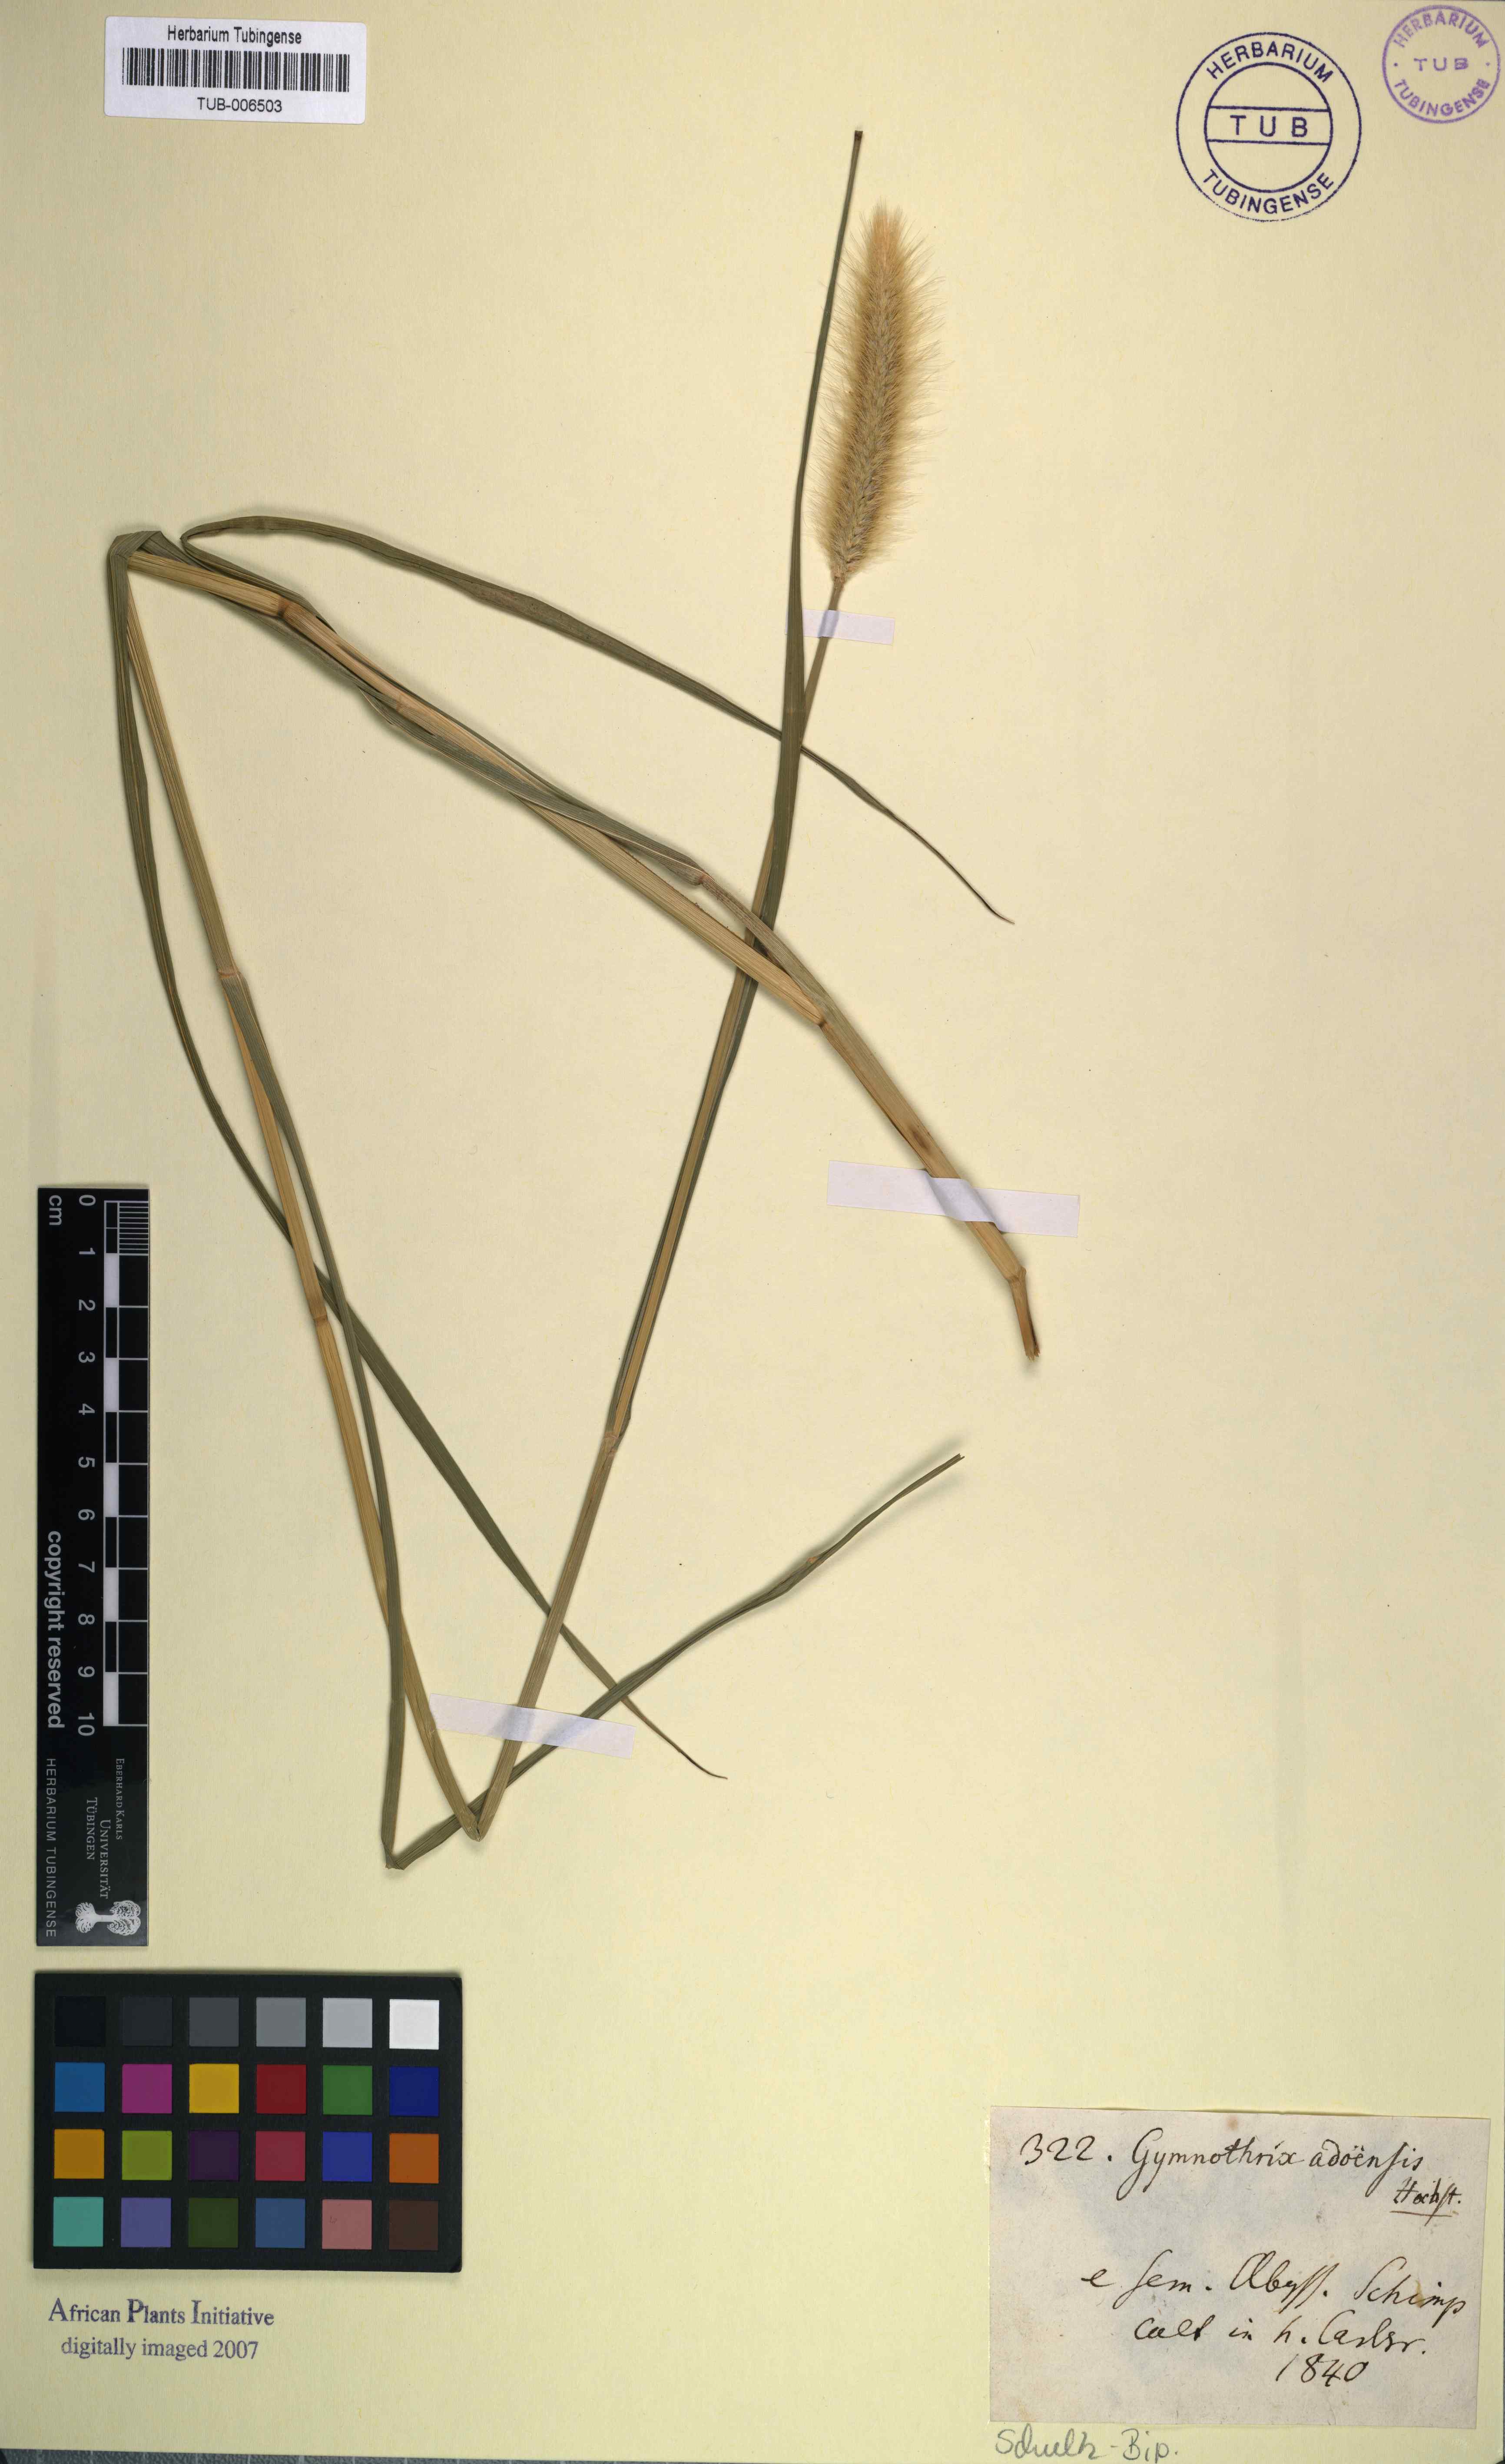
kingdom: Plantae
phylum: Tracheophyta
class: Liliopsida
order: Poales
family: Poaceae
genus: Cenchrus
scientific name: Cenchrus petiolaris
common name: Grass
